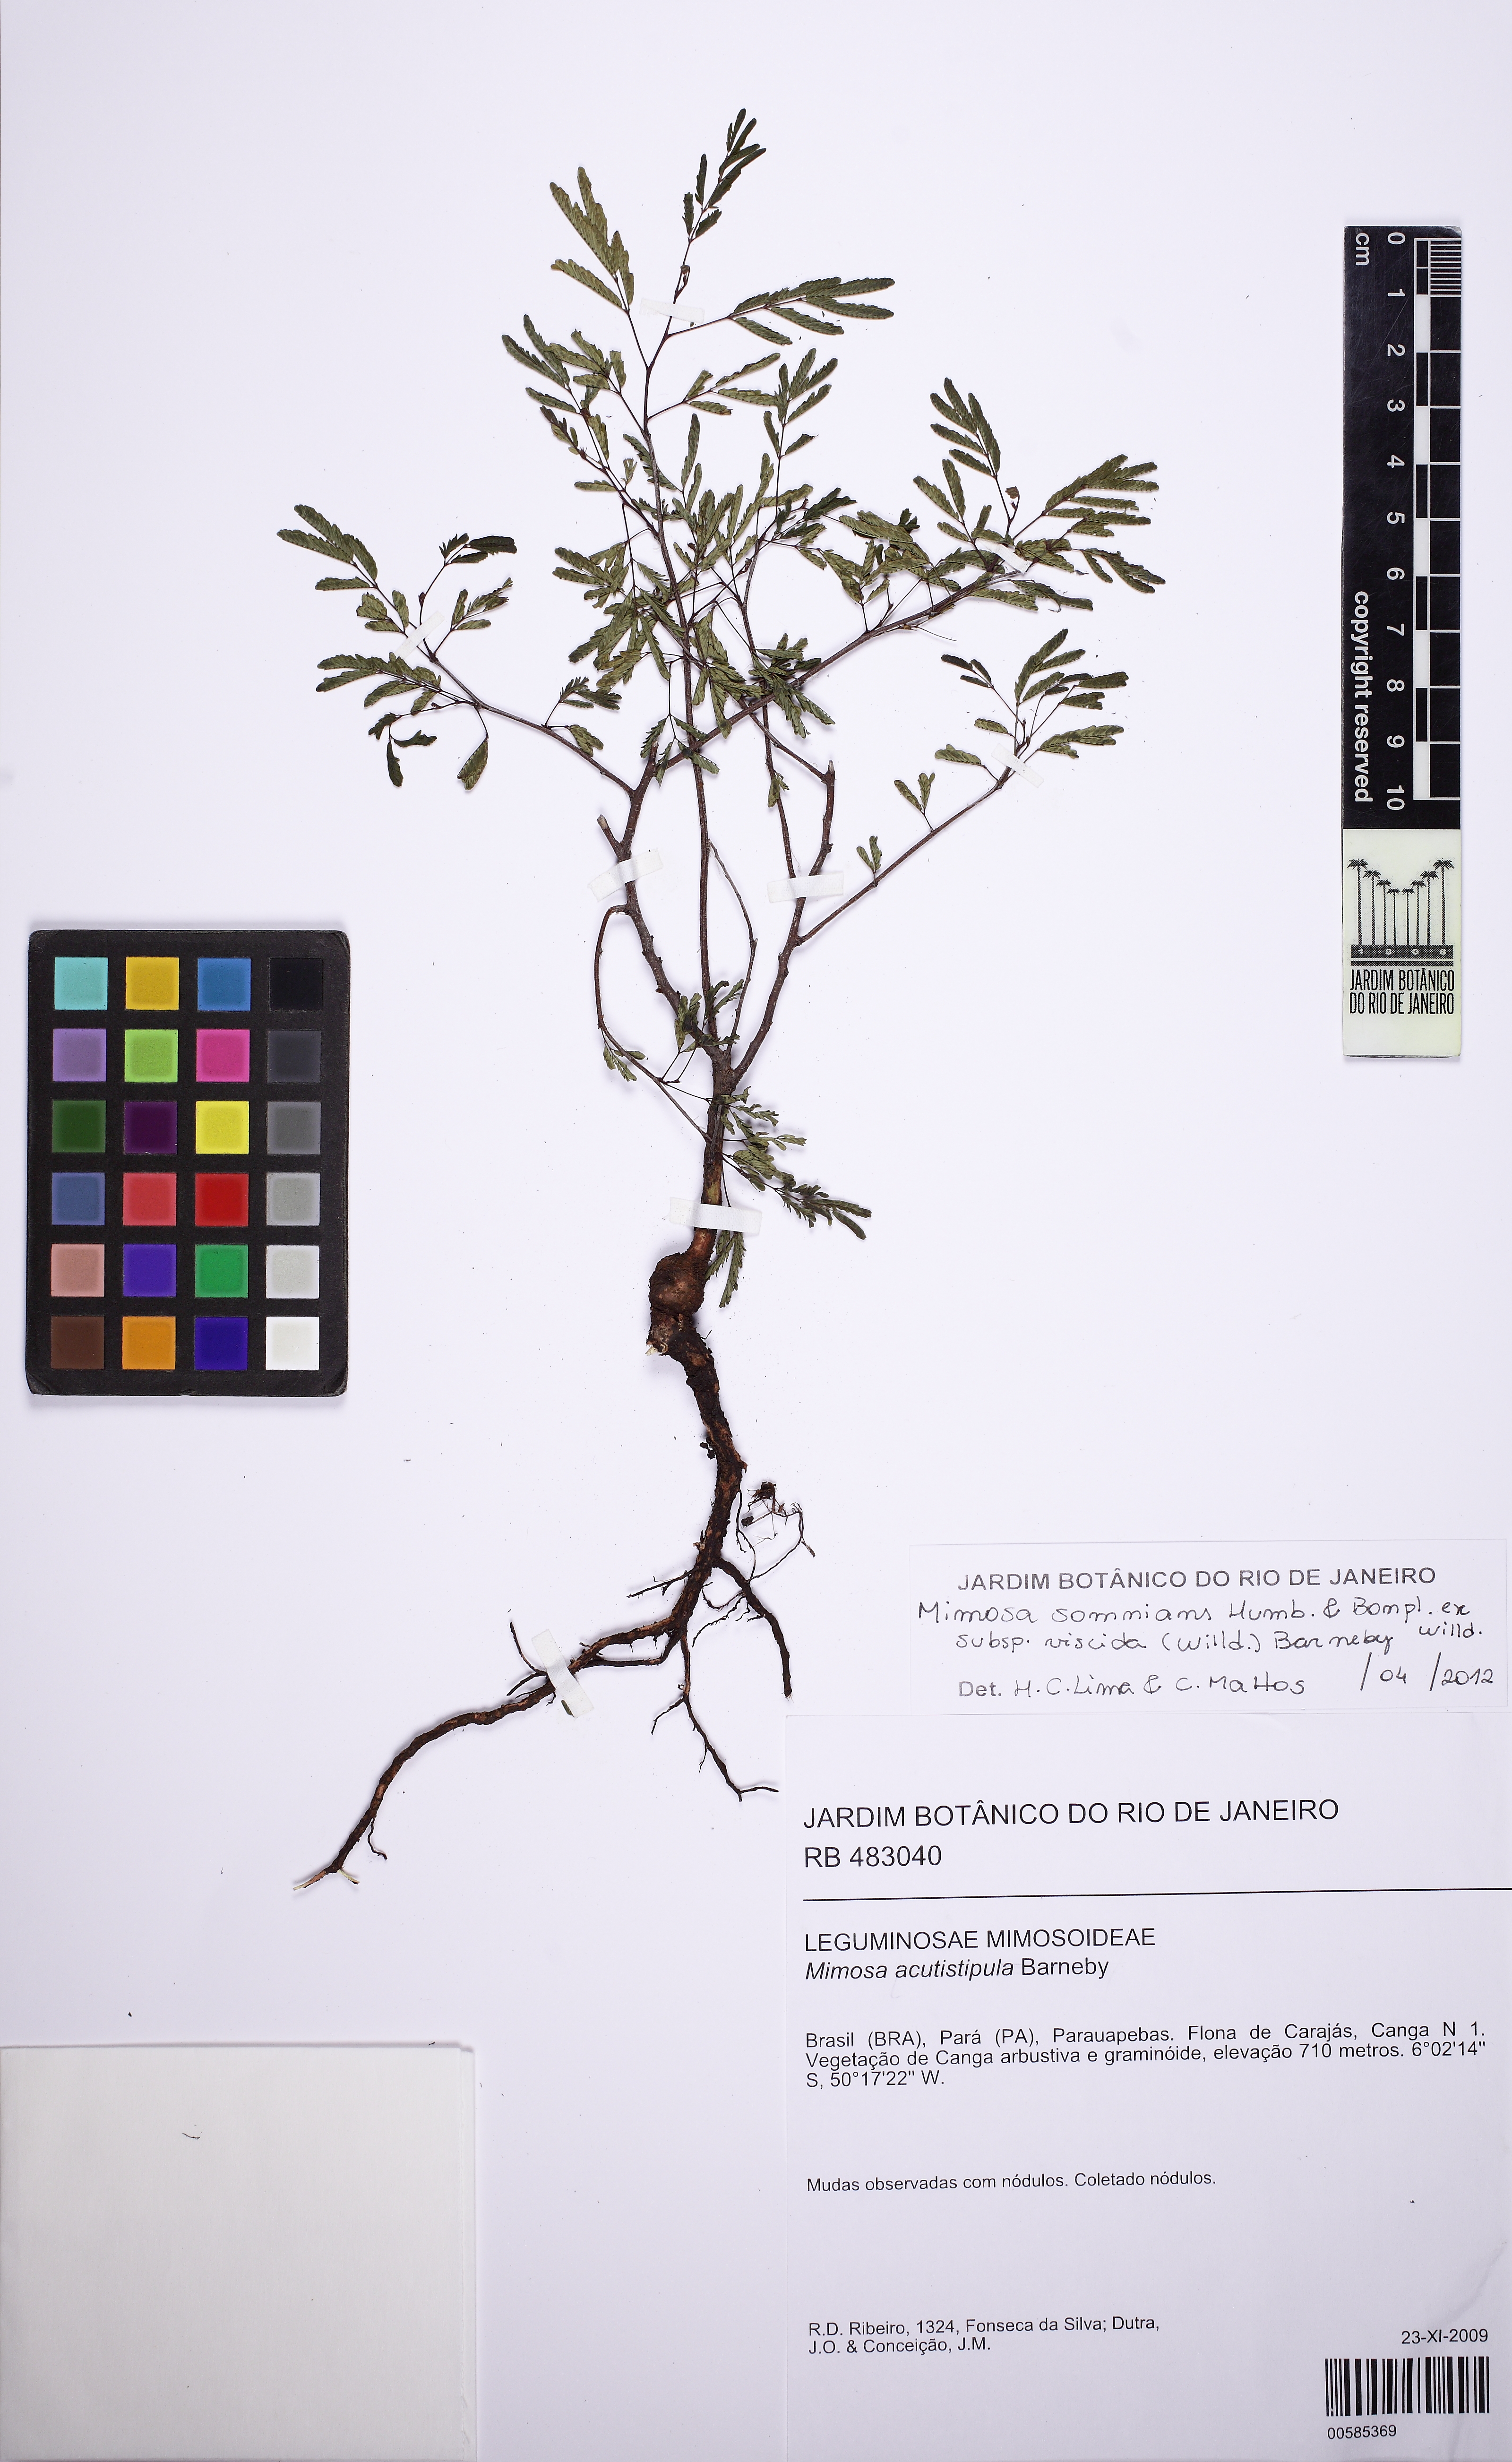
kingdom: Plantae
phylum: Tracheophyta
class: Magnoliopsida
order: Fabales
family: Fabaceae
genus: Mimosa
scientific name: Mimosa somnians
